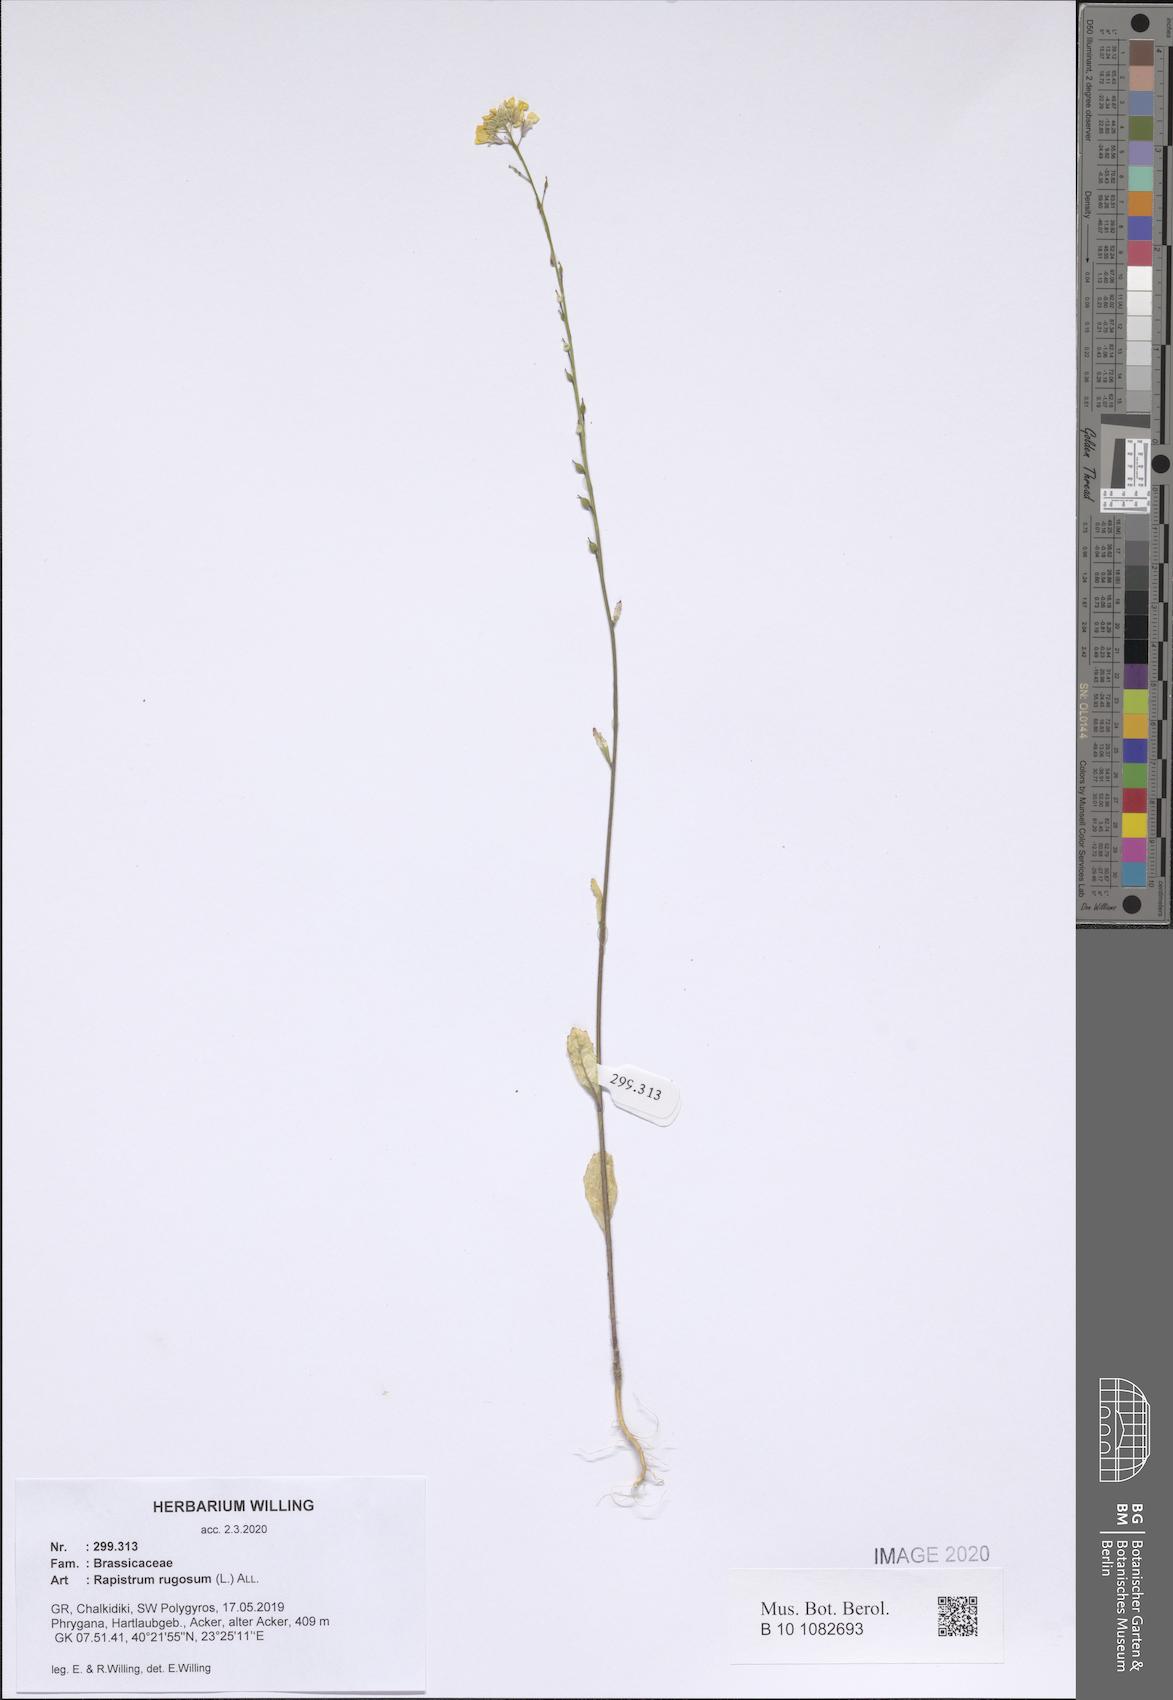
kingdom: Plantae
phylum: Tracheophyta
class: Magnoliopsida
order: Brassicales
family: Brassicaceae
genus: Rapistrum
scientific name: Rapistrum rugosum
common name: Annual bastardcabbage
